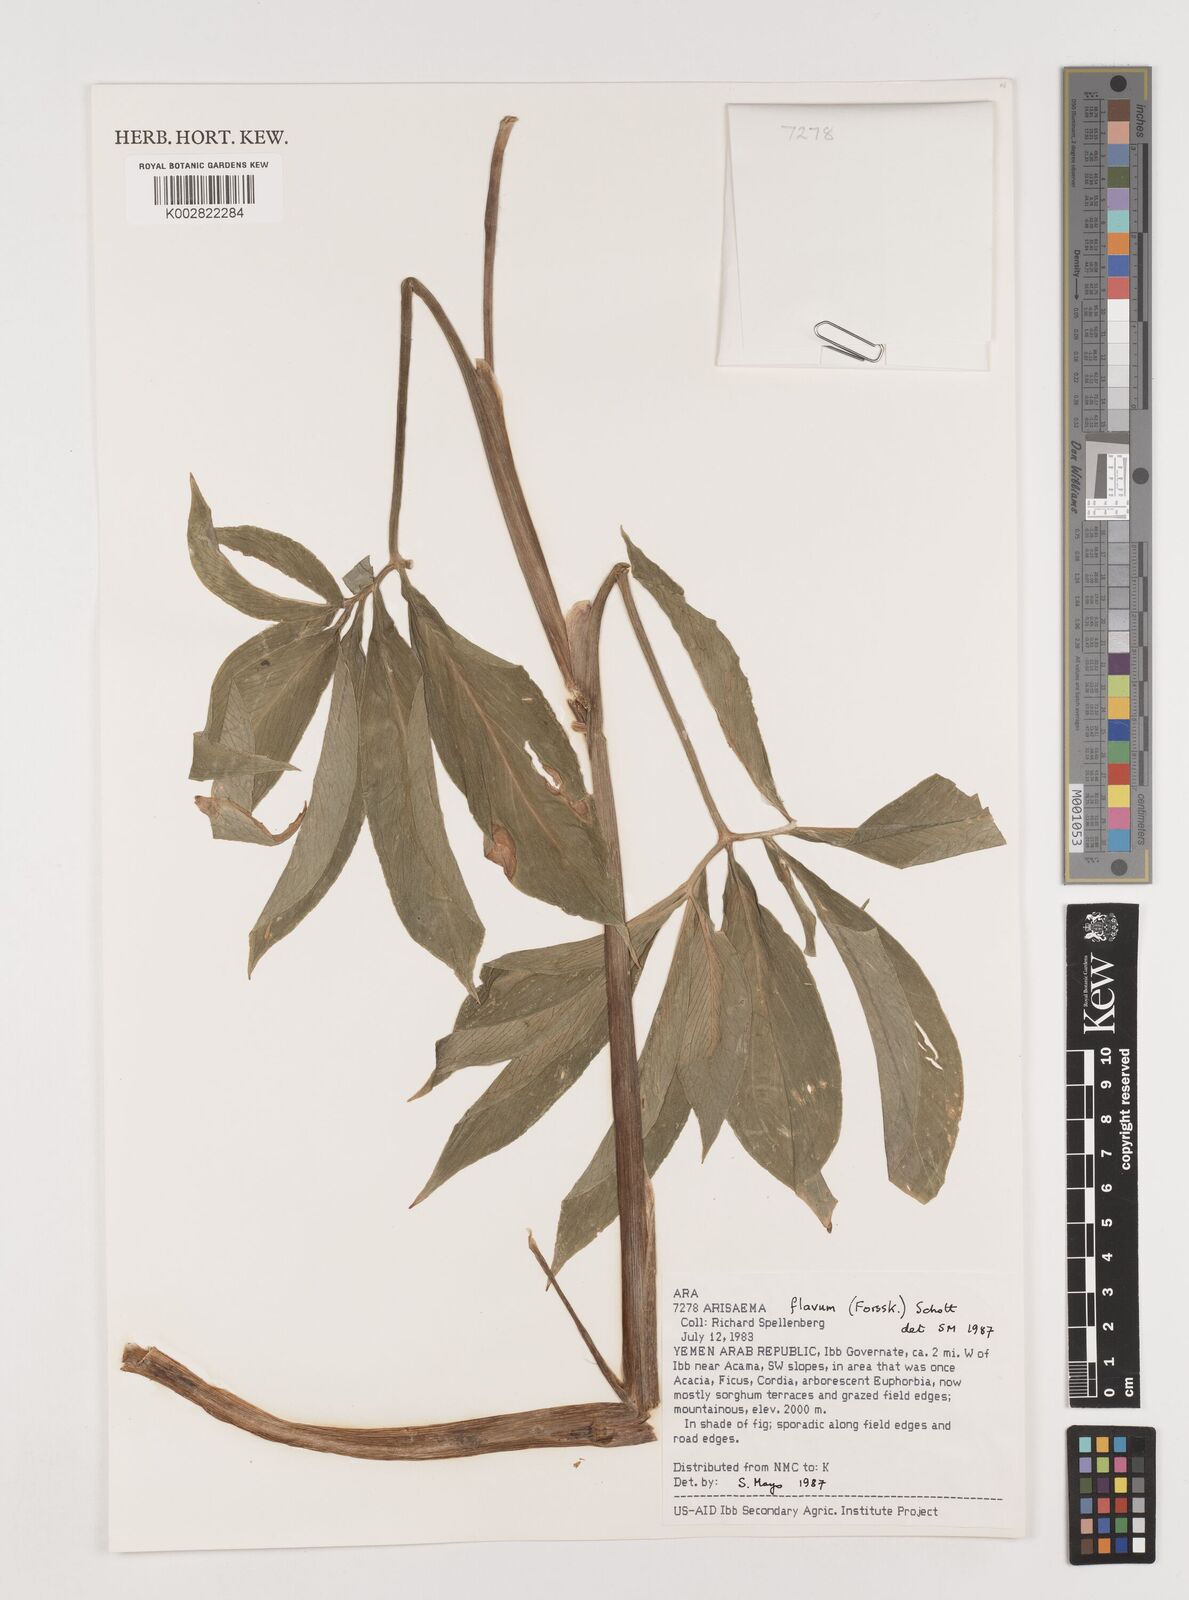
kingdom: Plantae
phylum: Tracheophyta
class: Liliopsida
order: Alismatales
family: Araceae
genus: Arisaema
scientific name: Arisaema flavum
